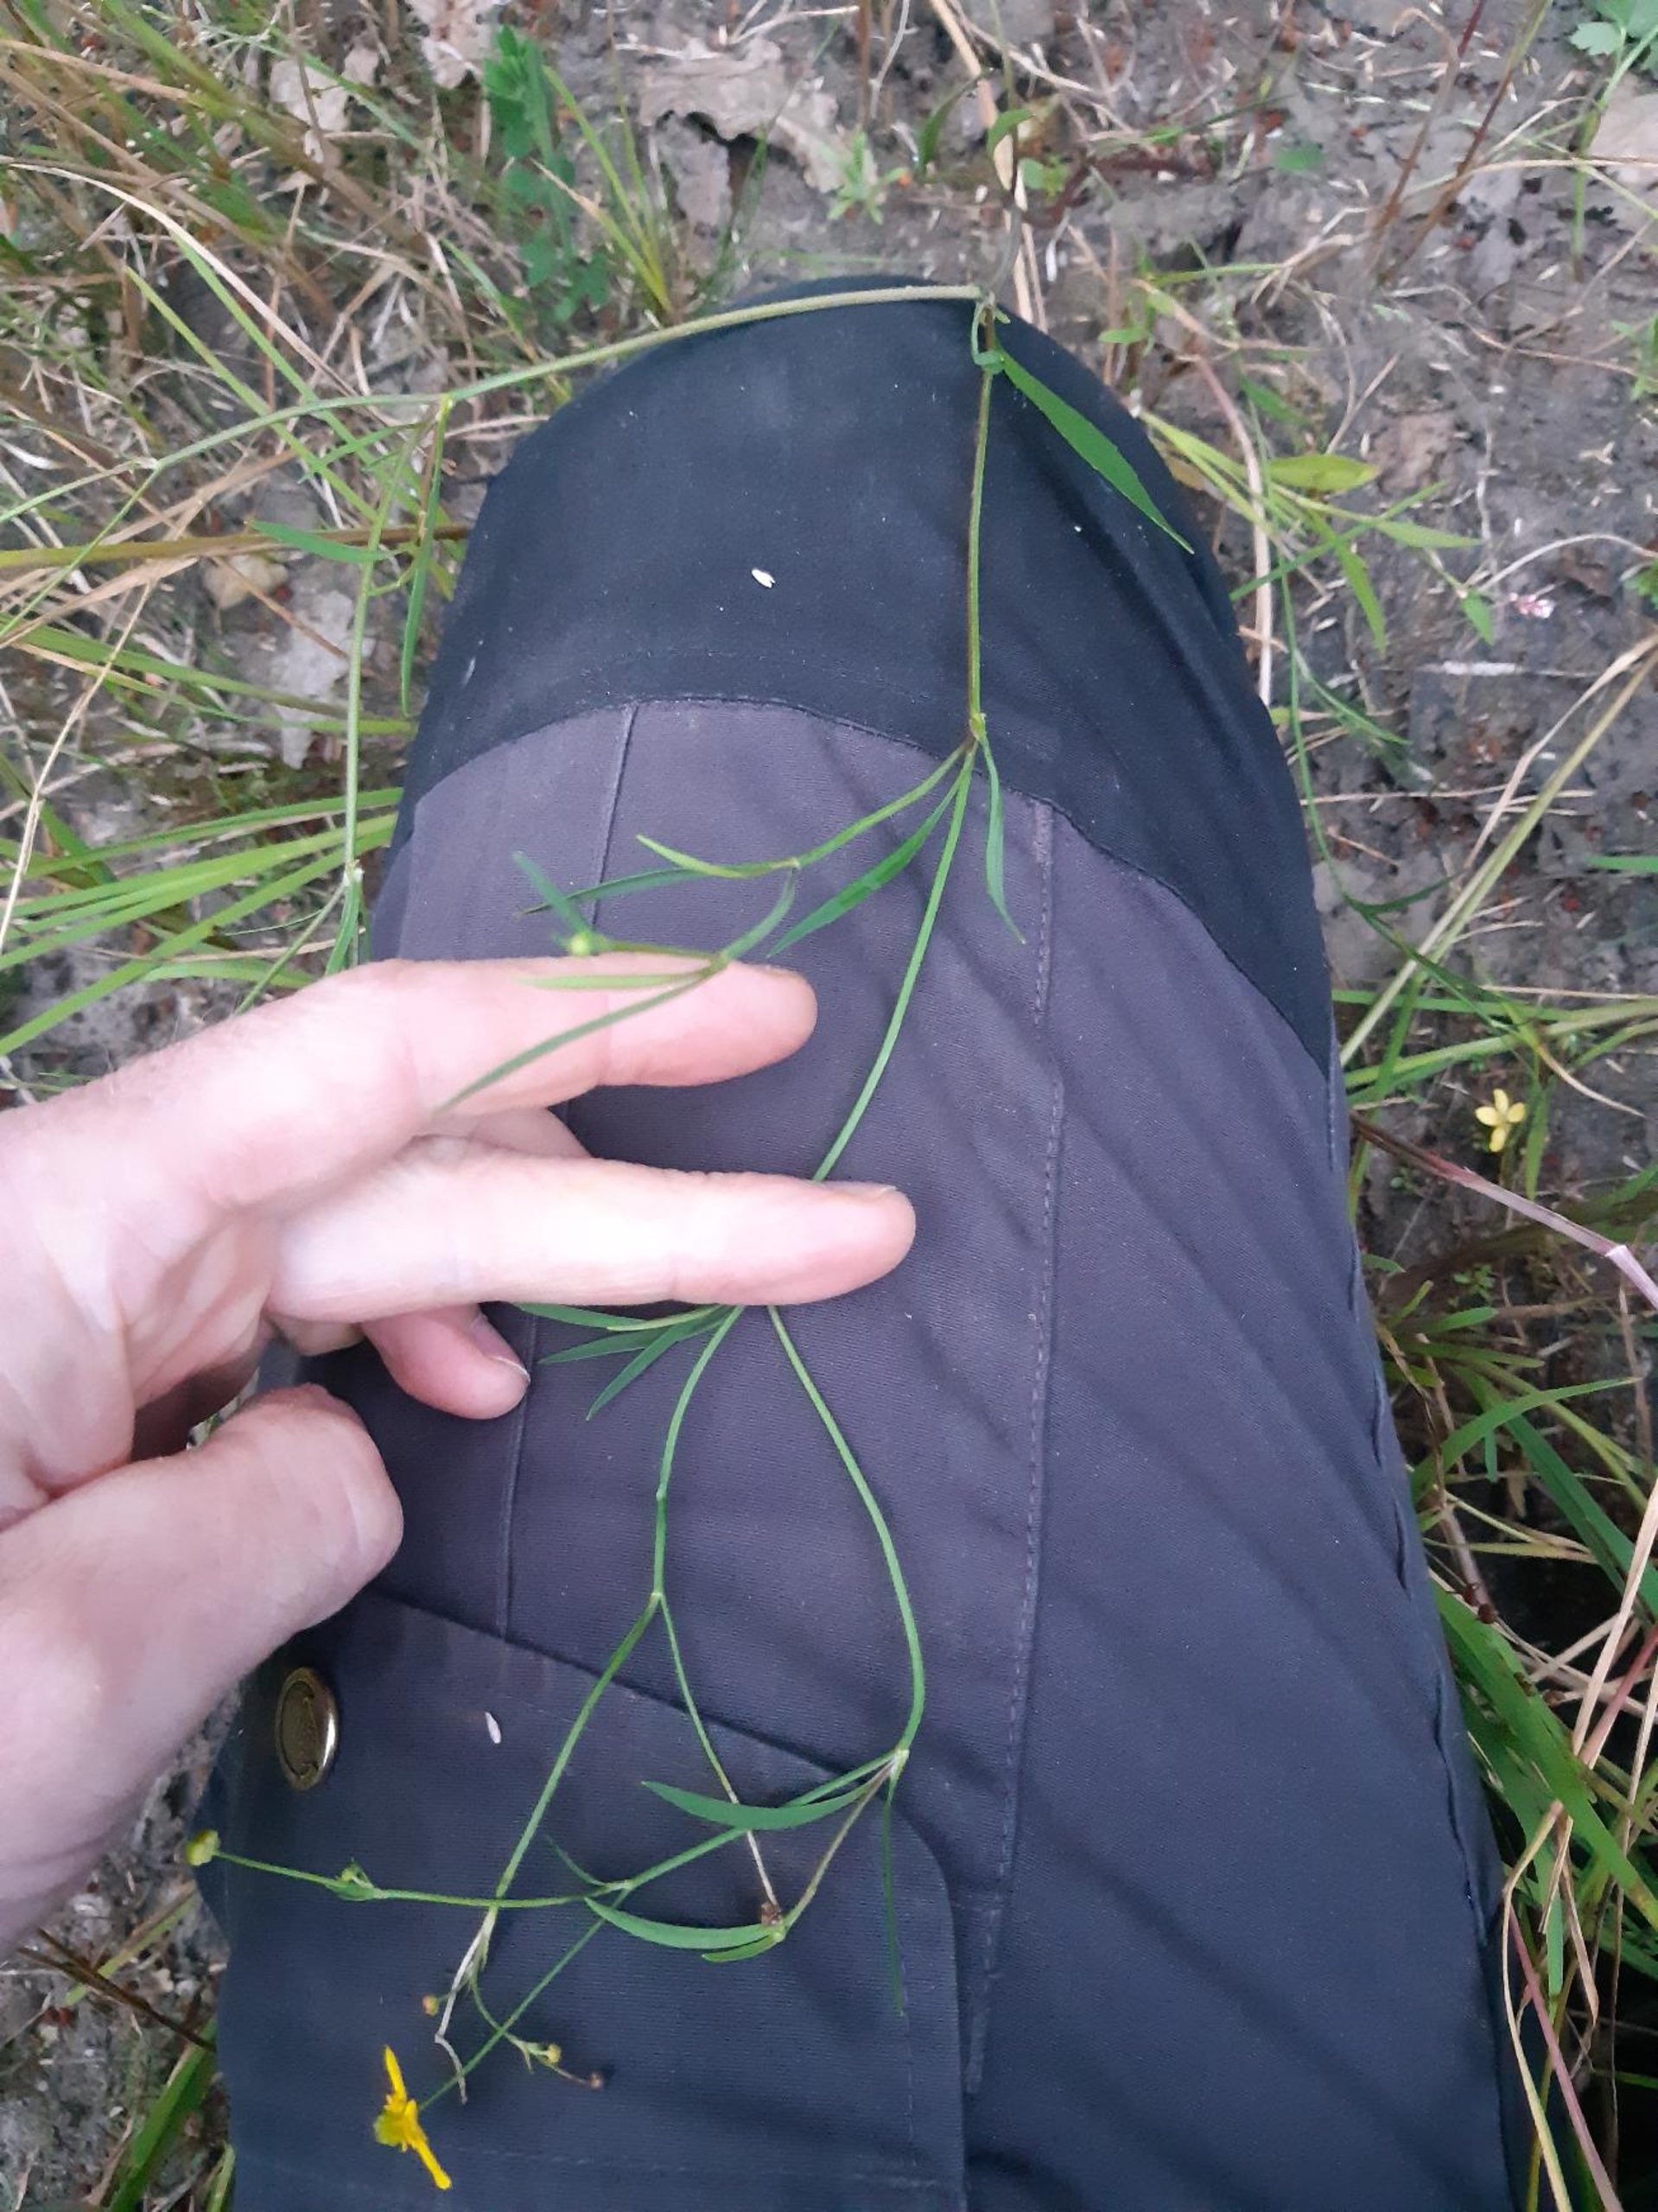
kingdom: Plantae
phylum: Tracheophyta
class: Magnoliopsida
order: Ranunculales
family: Ranunculaceae
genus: Ranunculus
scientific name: Ranunculus flammula
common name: Kær-ranunkel
